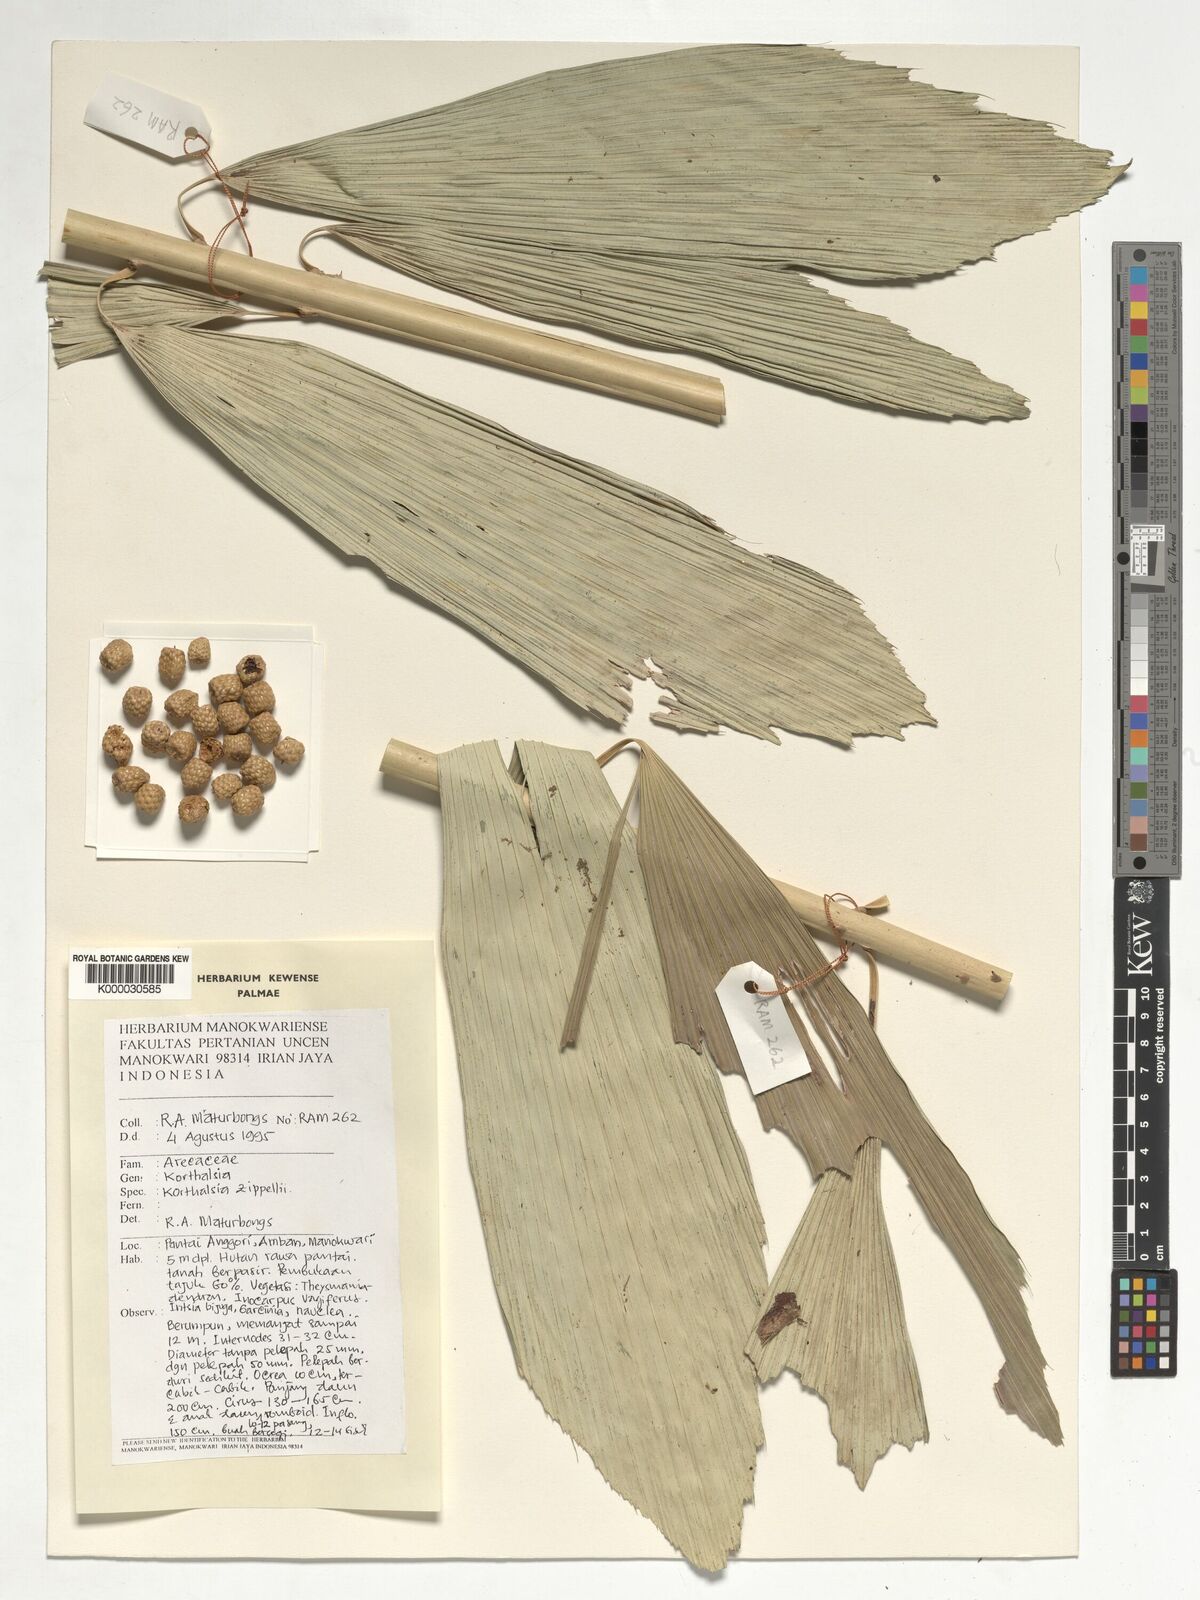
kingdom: Plantae
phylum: Tracheophyta
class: Liliopsida
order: Arecales
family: Arecaceae
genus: Korthalsia
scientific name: Korthalsia zippelii
